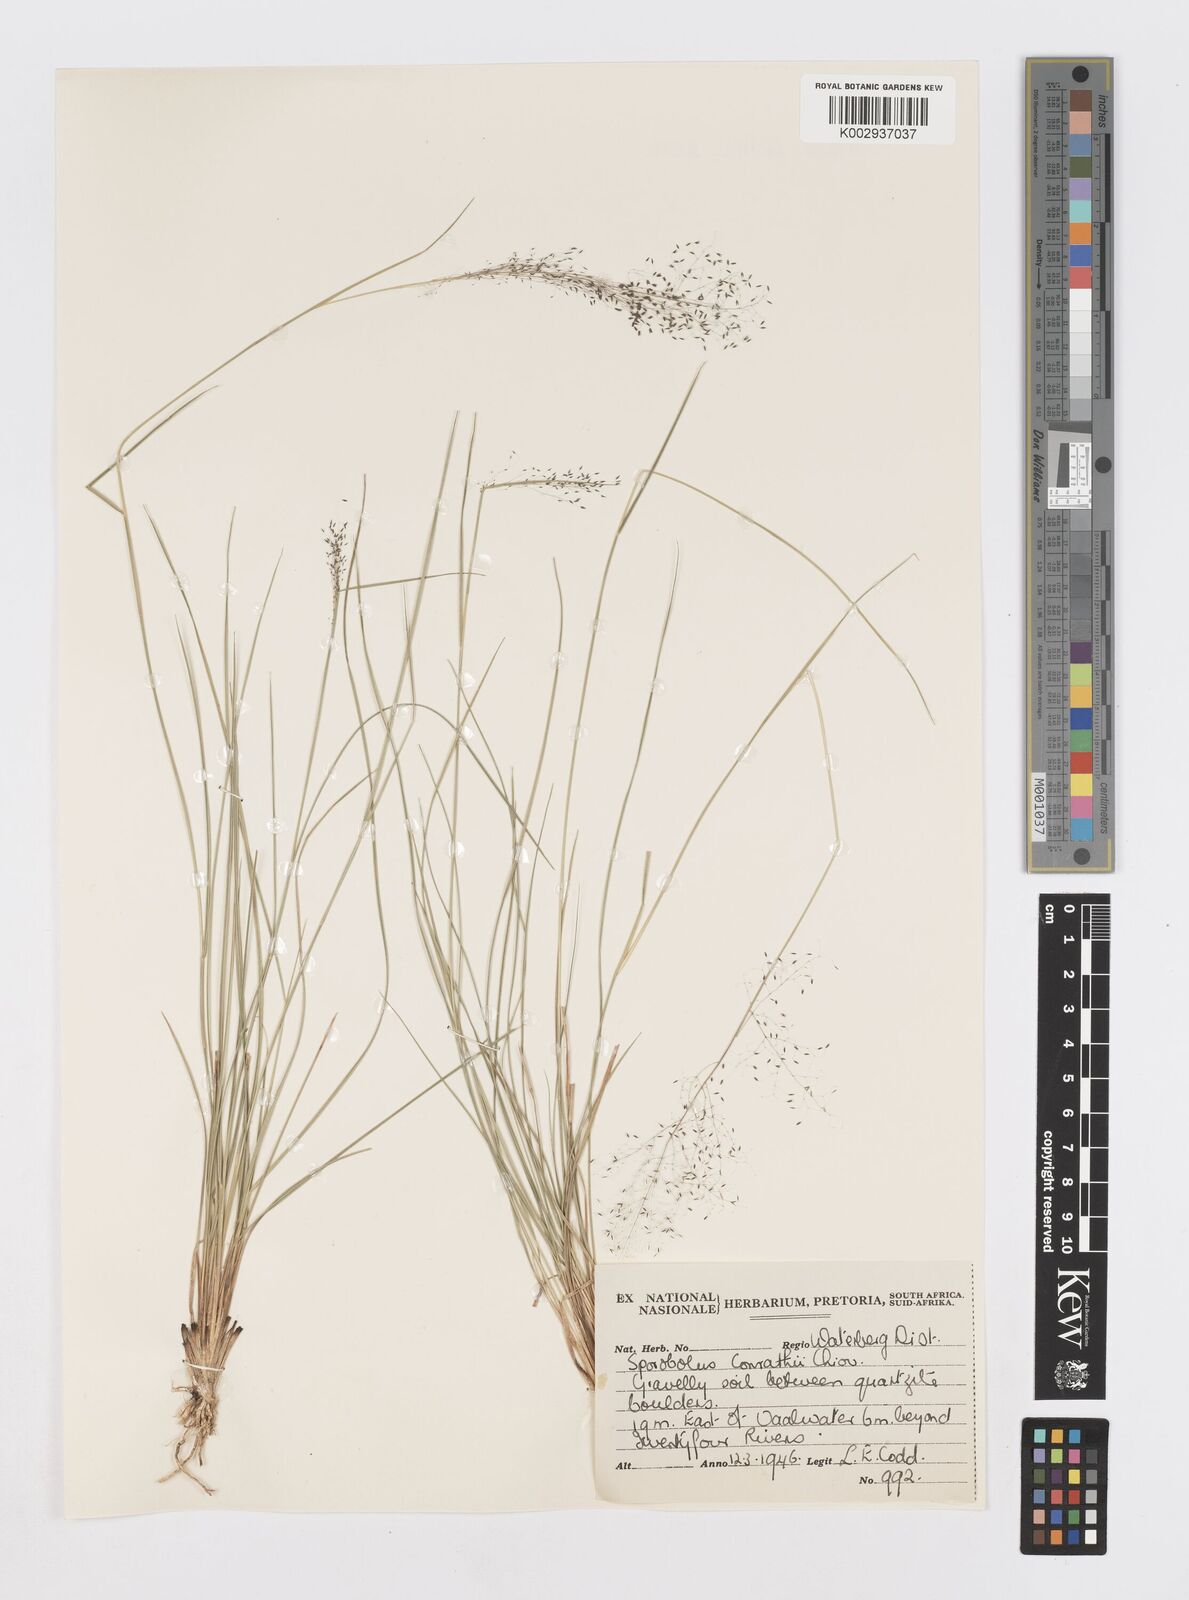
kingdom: Plantae
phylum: Tracheophyta
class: Liliopsida
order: Poales
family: Poaceae
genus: Sporobolus
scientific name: Sporobolus welwitschii
